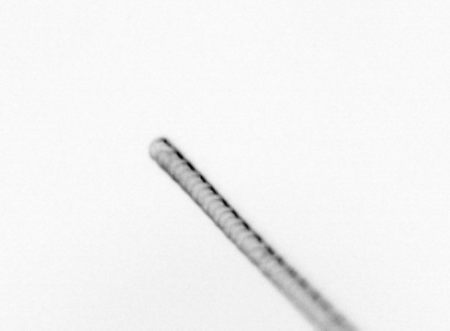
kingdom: Chromista
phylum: Ochrophyta
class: Bacillariophyceae
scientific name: Bacillariophyceae
